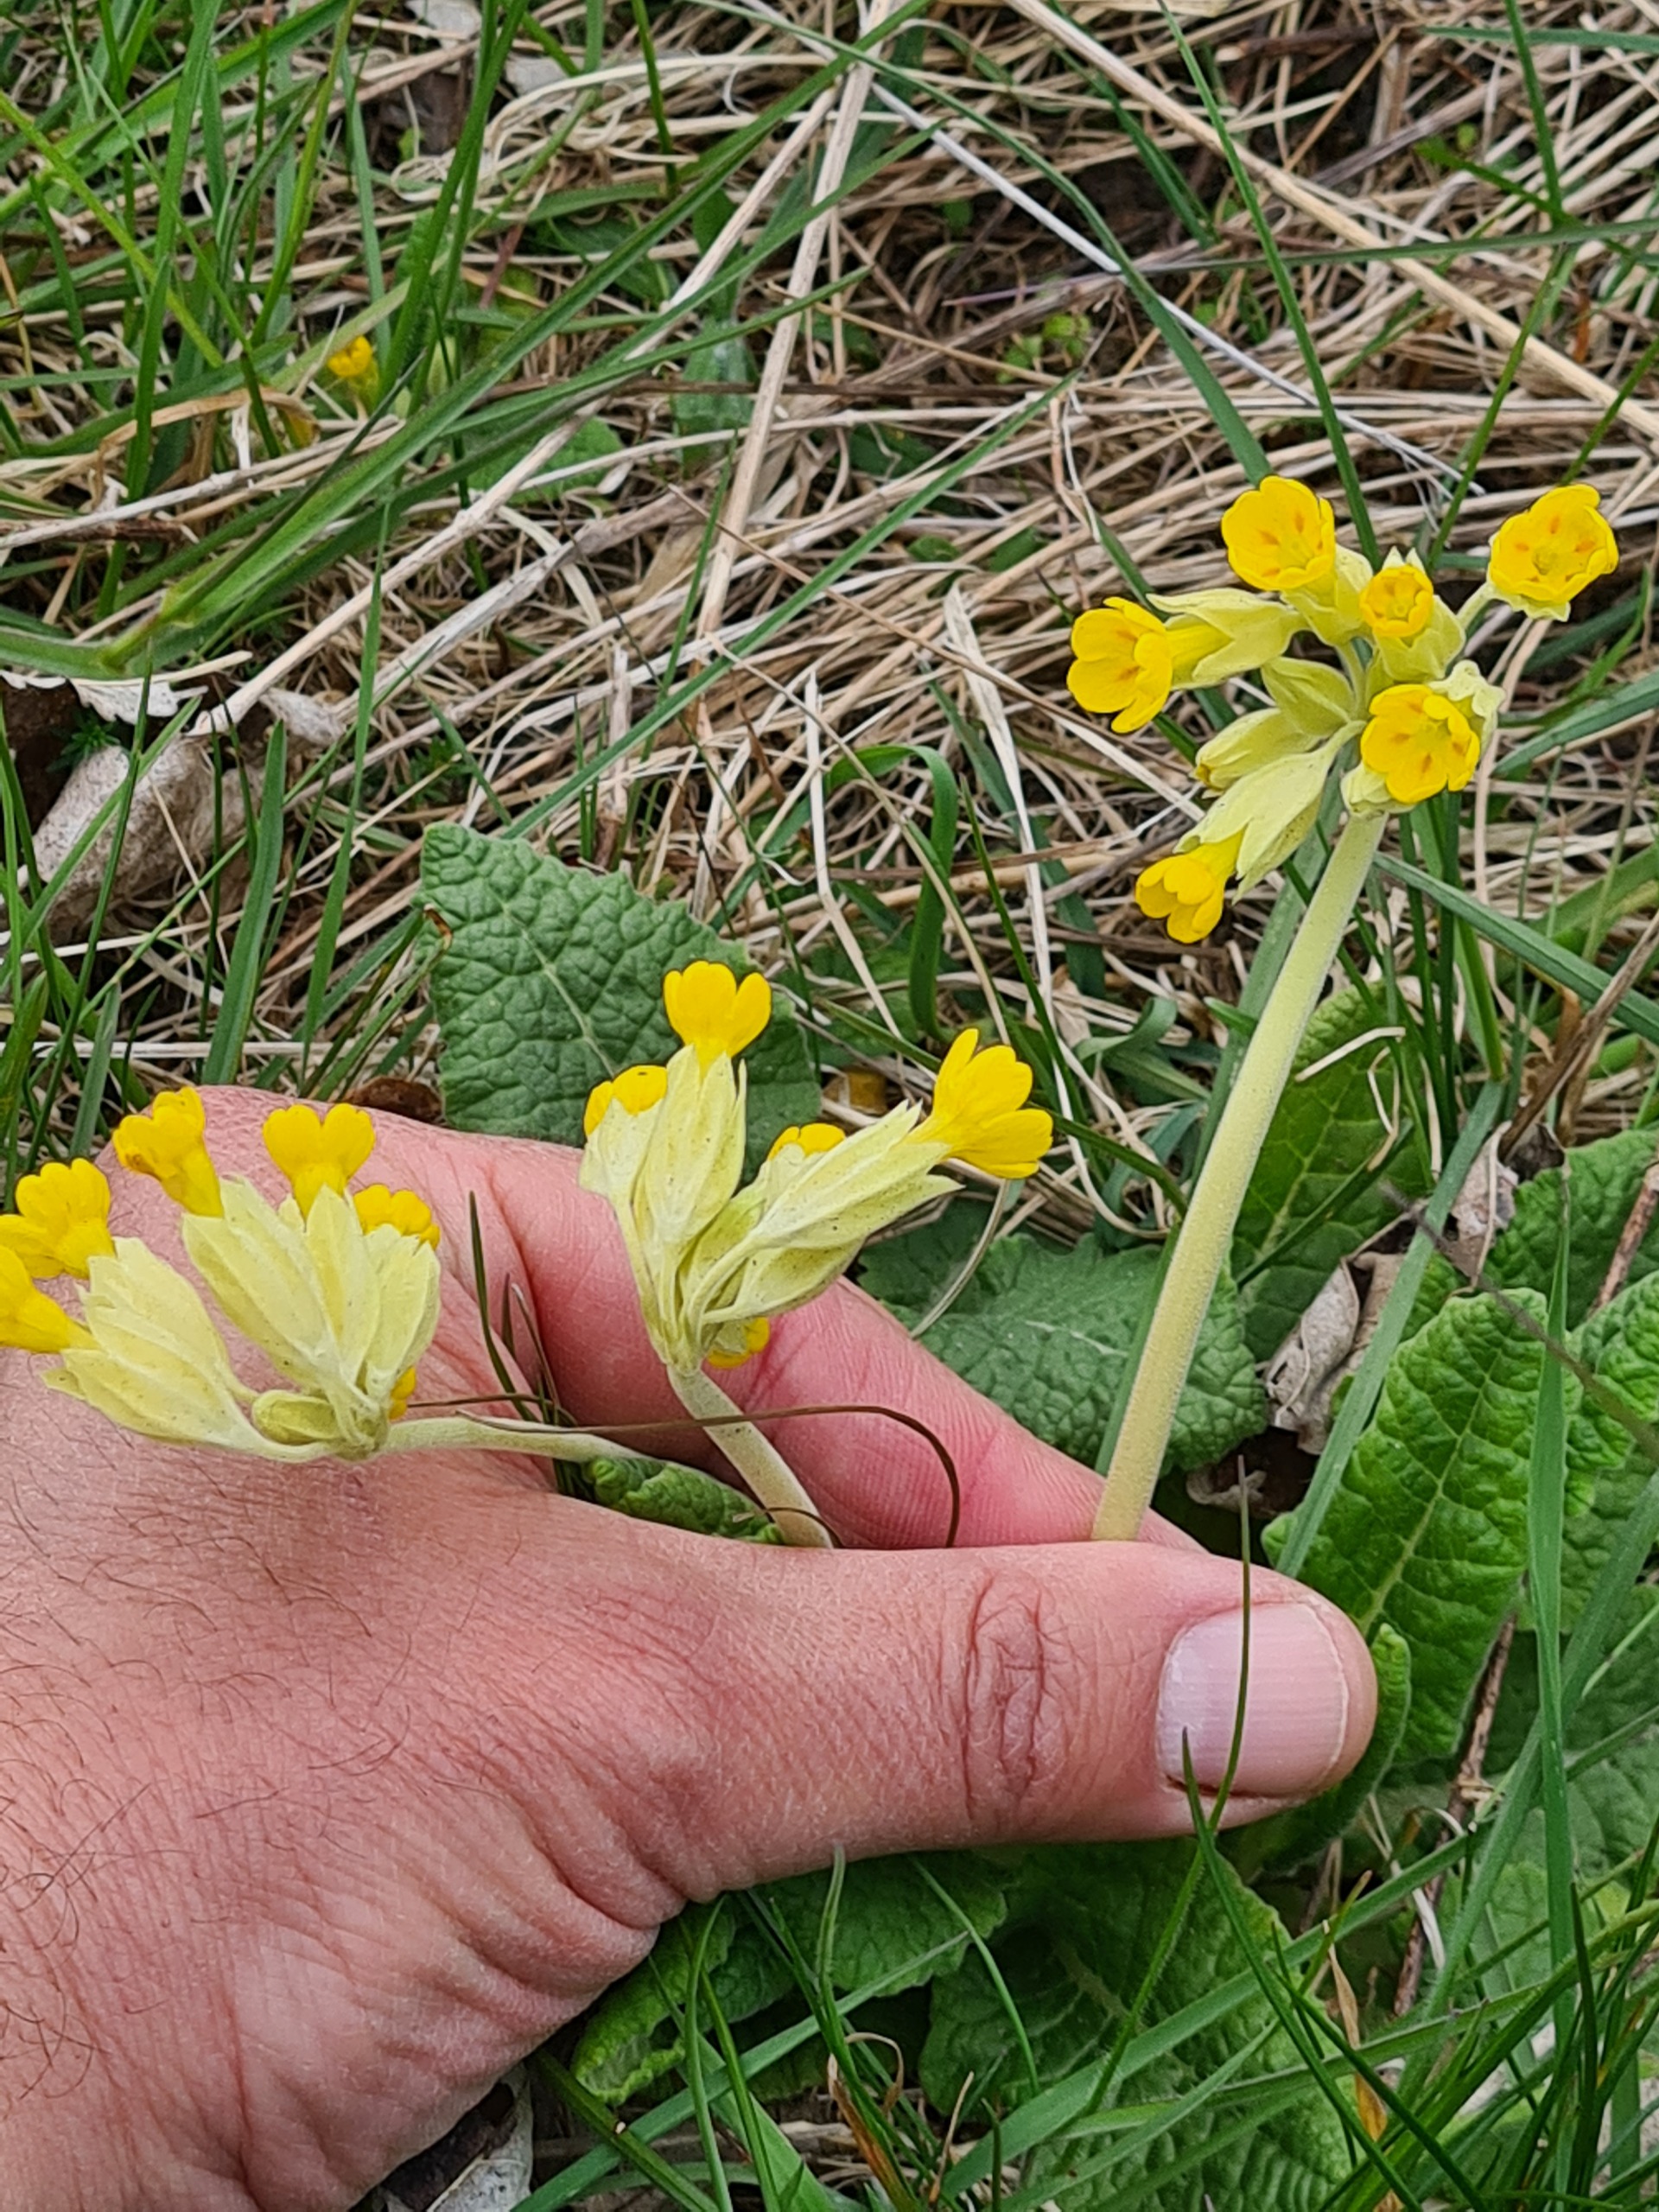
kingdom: Plantae
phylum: Tracheophyta
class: Magnoliopsida
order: Ericales
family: Primulaceae
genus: Primula
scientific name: Primula veris
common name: Hulkravet kodriver
